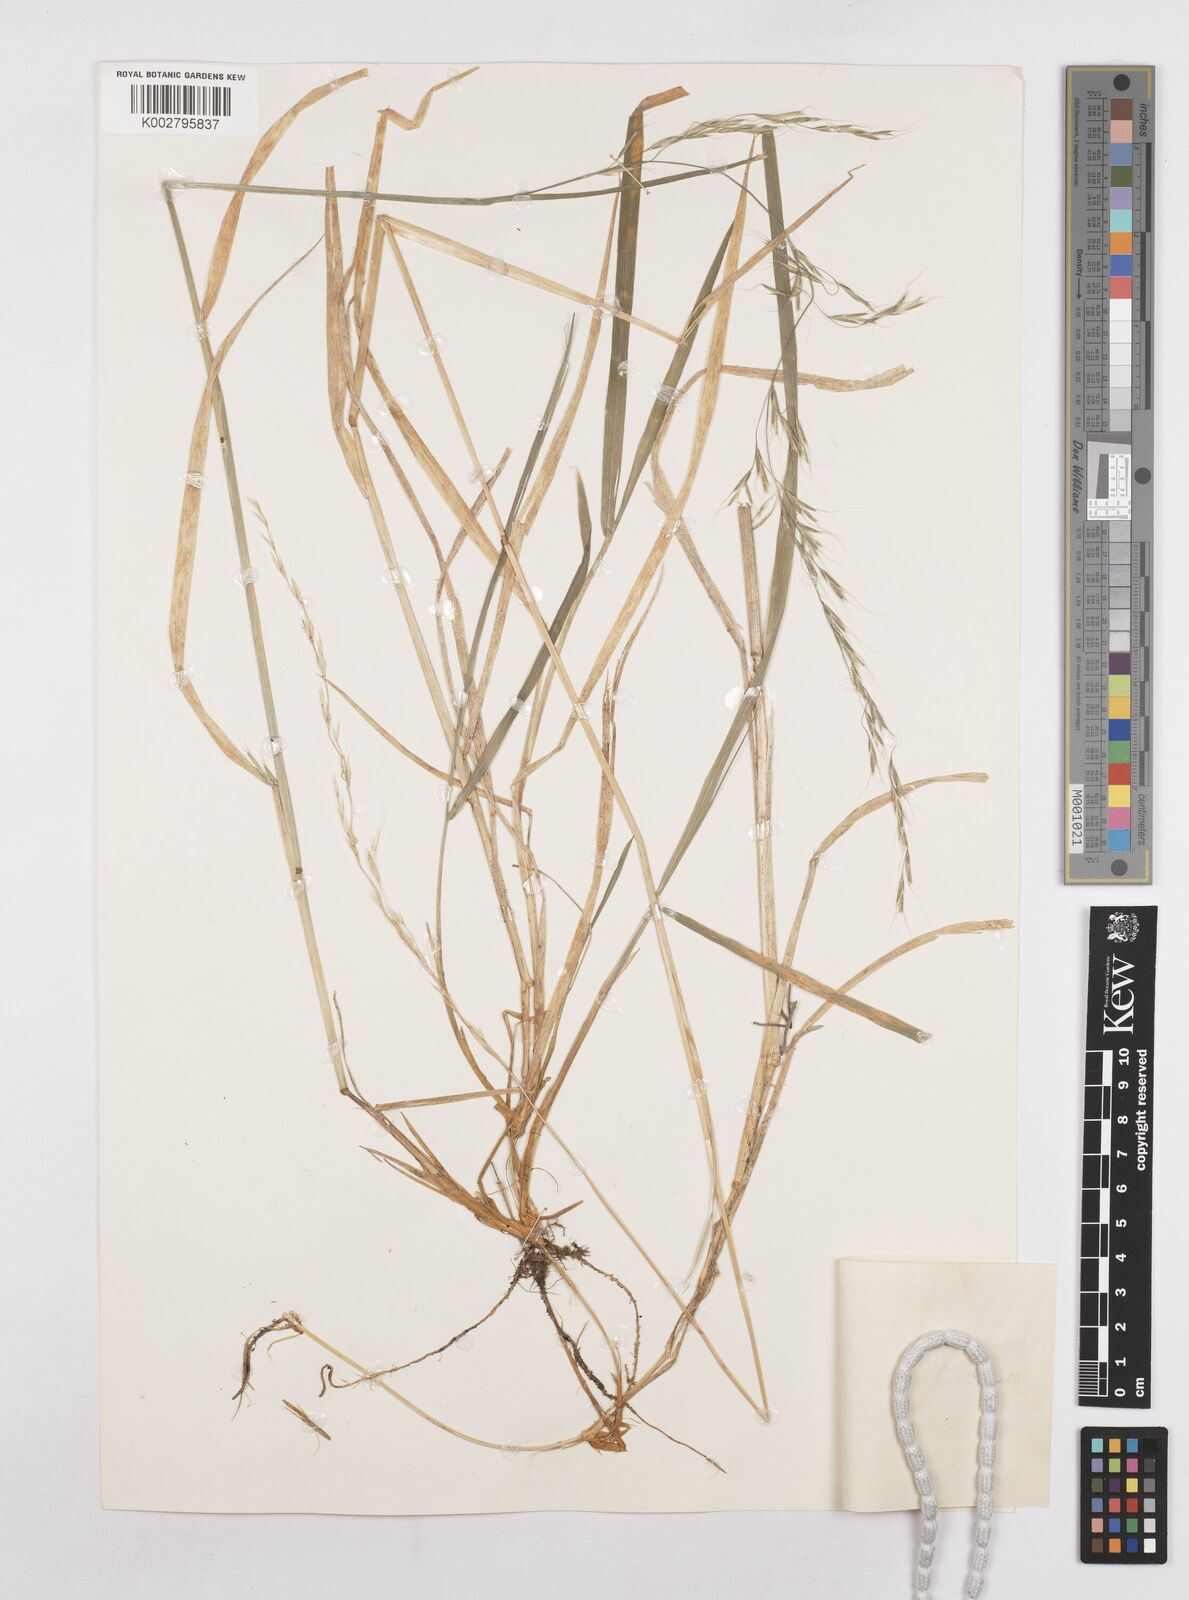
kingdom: Plantae
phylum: Tracheophyta
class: Liliopsida
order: Poales
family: Poaceae
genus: Trisetopsis
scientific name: Trisetopsis milanjiana
